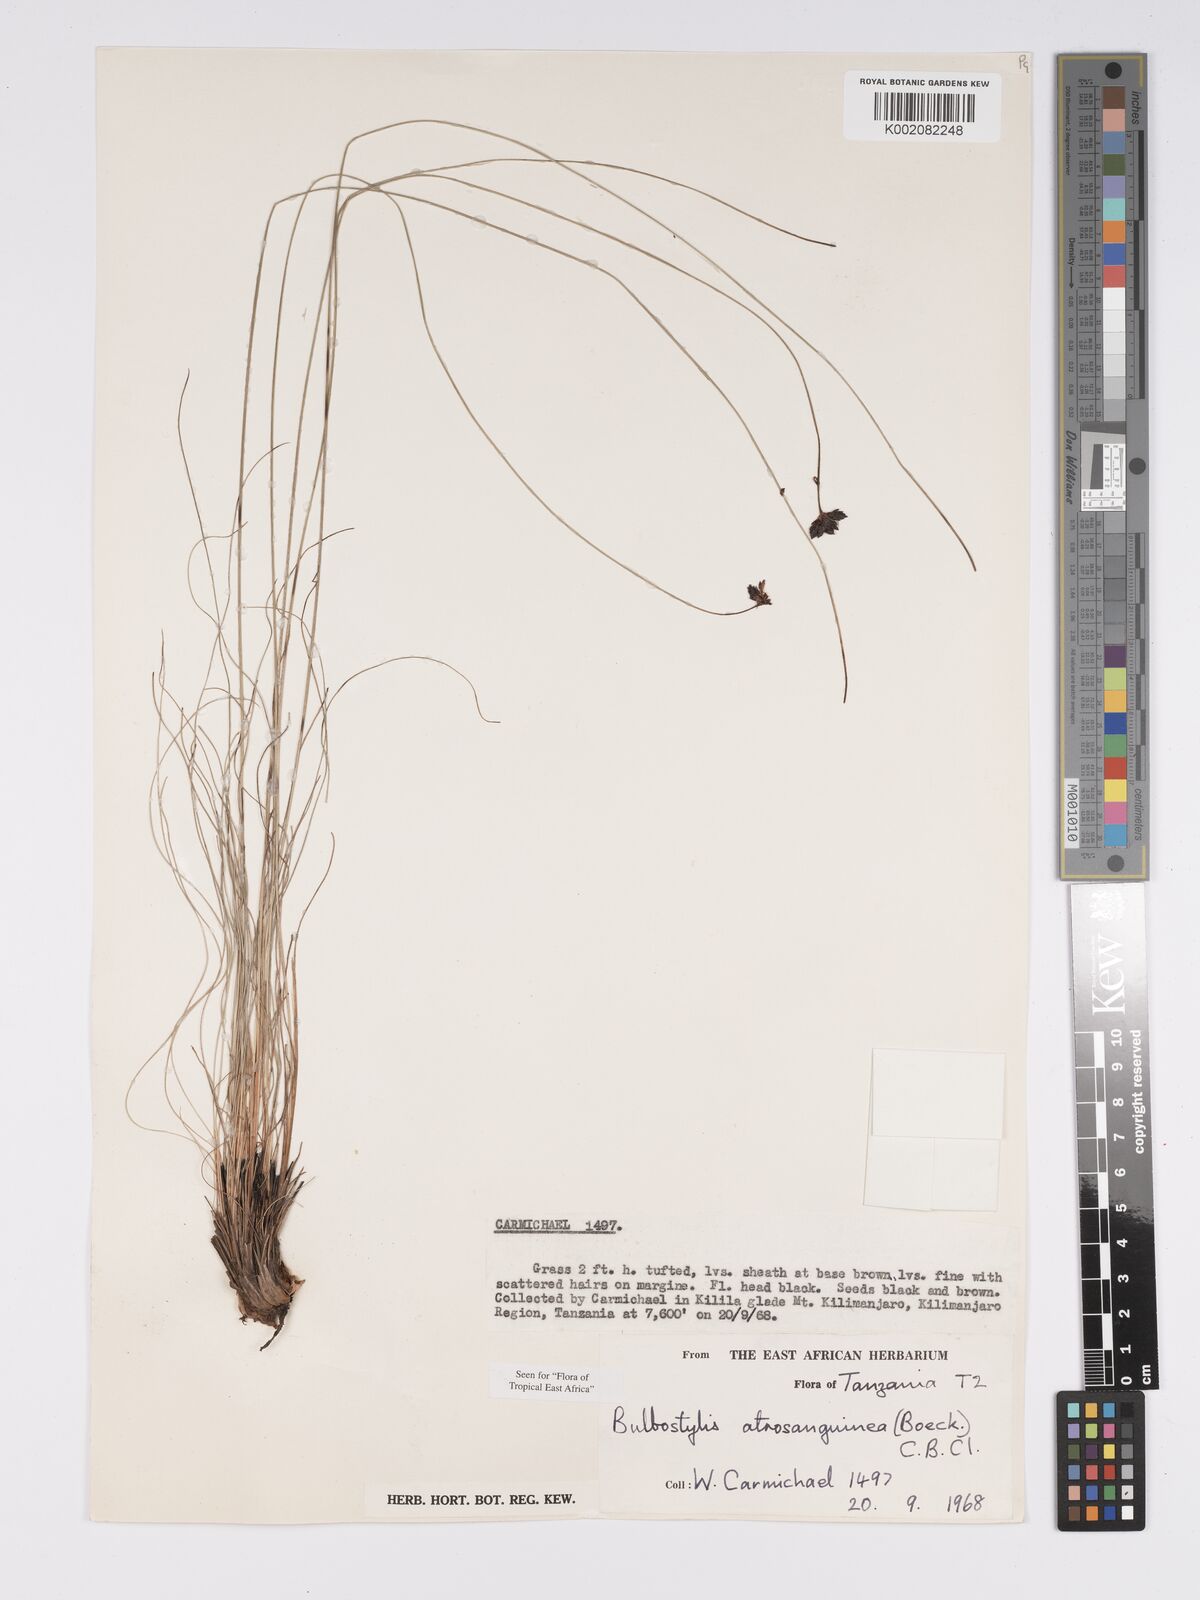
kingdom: Plantae
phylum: Tracheophyta
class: Liliopsida
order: Poales
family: Cyperaceae
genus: Bulbostylis
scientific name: Bulbostylis atrosanguinea
